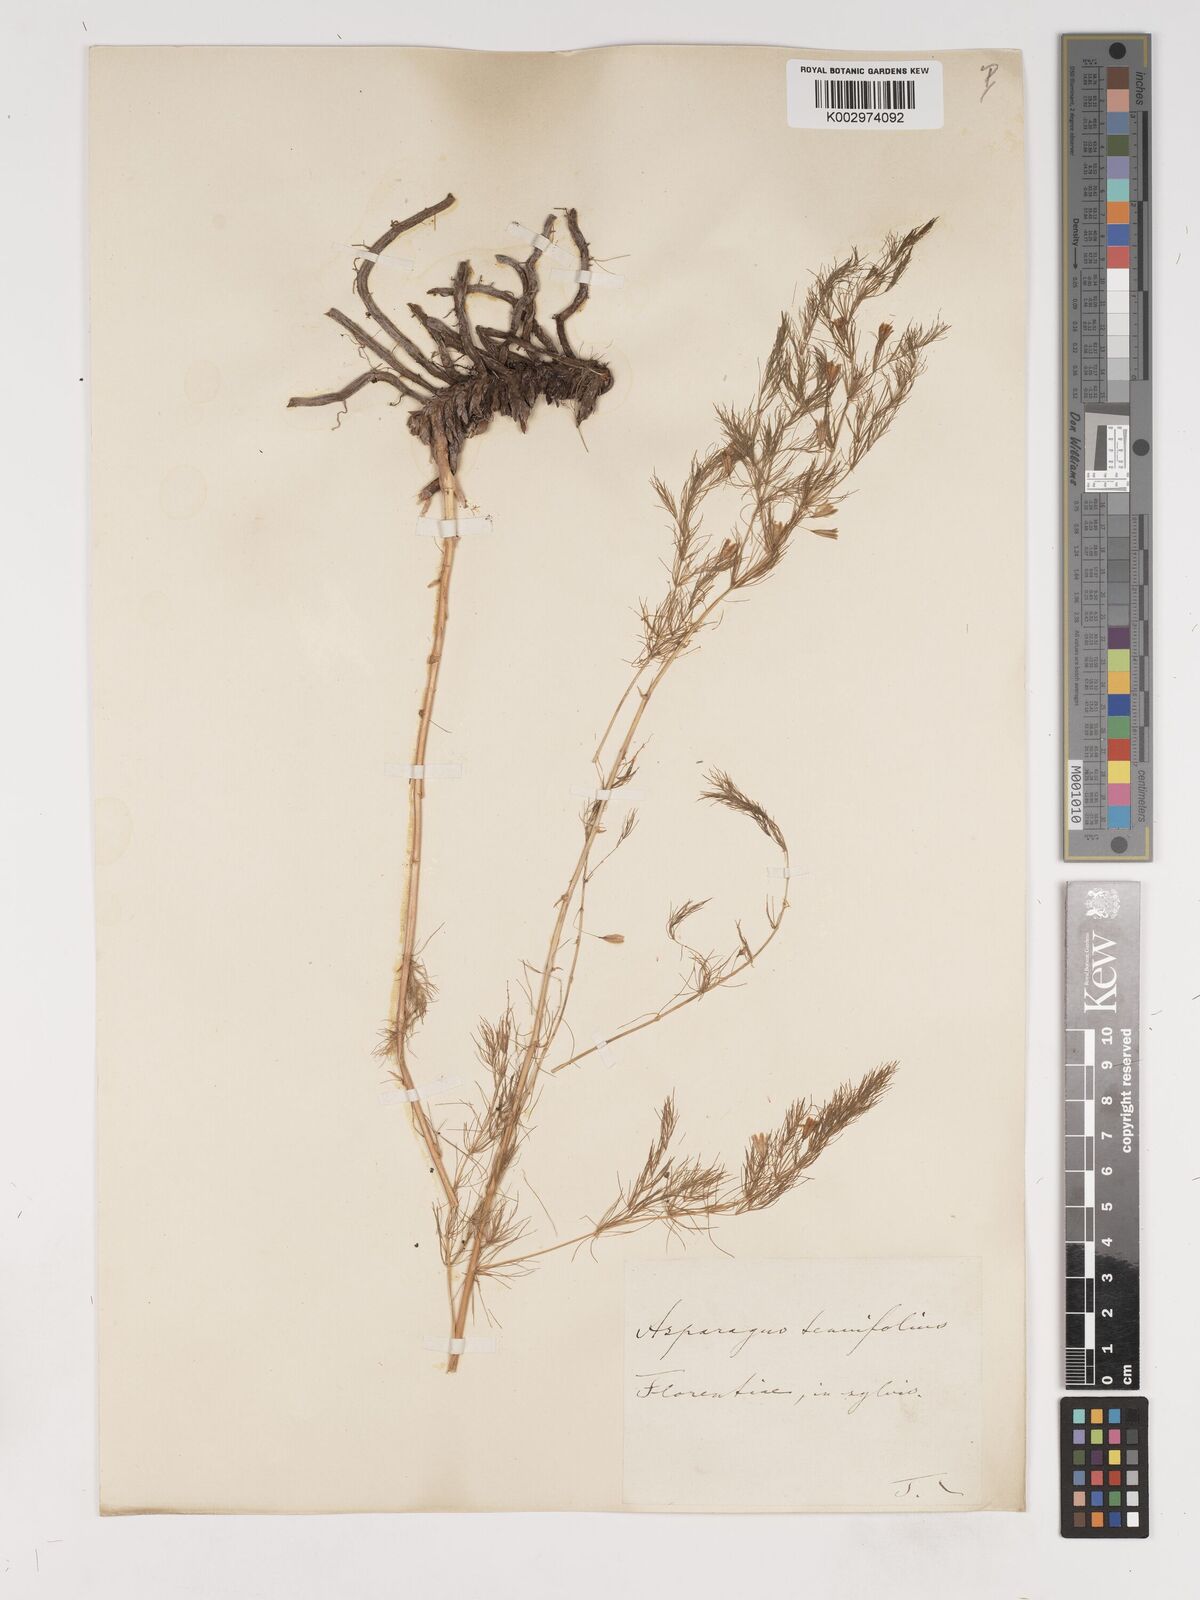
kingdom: Plantae
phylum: Tracheophyta
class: Liliopsida
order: Asparagales
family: Asparagaceae
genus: Asparagus
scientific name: Asparagus tenuifolius
